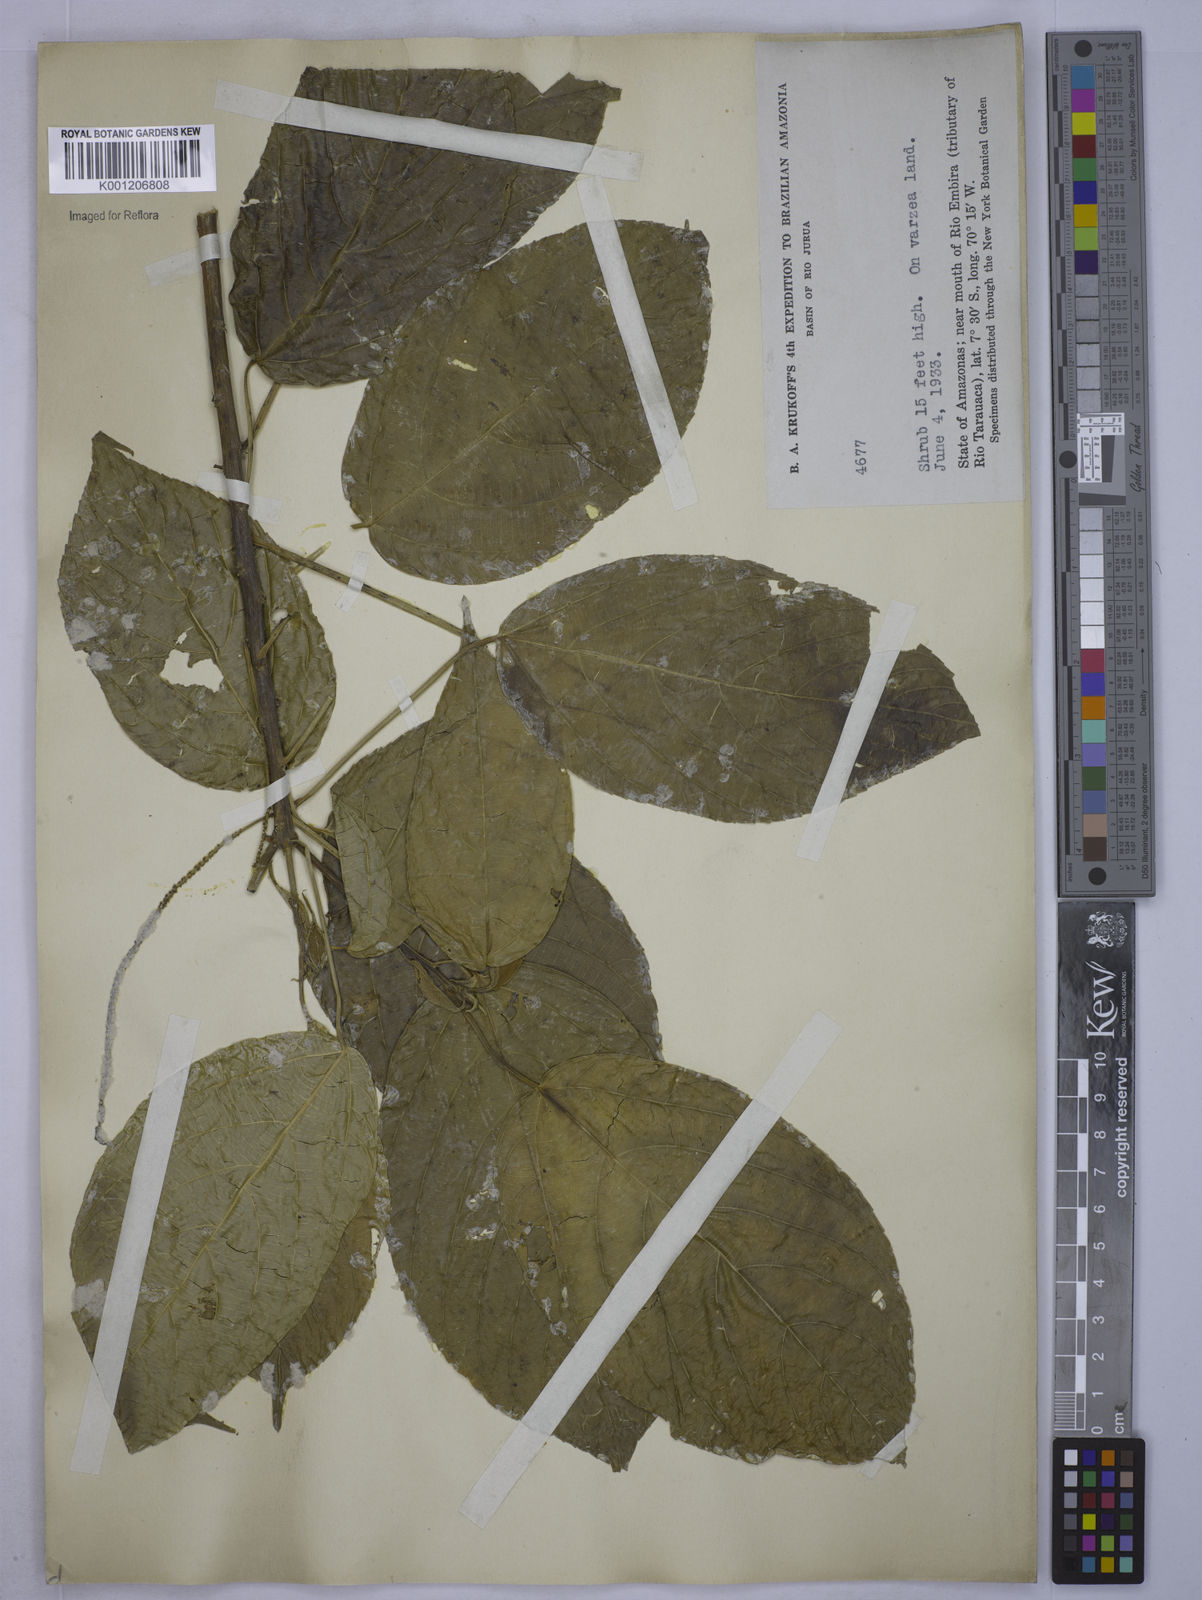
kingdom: Plantae
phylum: Tracheophyta
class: Magnoliopsida
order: Malpighiales
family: Euphorbiaceae
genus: Acalypha
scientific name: Acalypha
